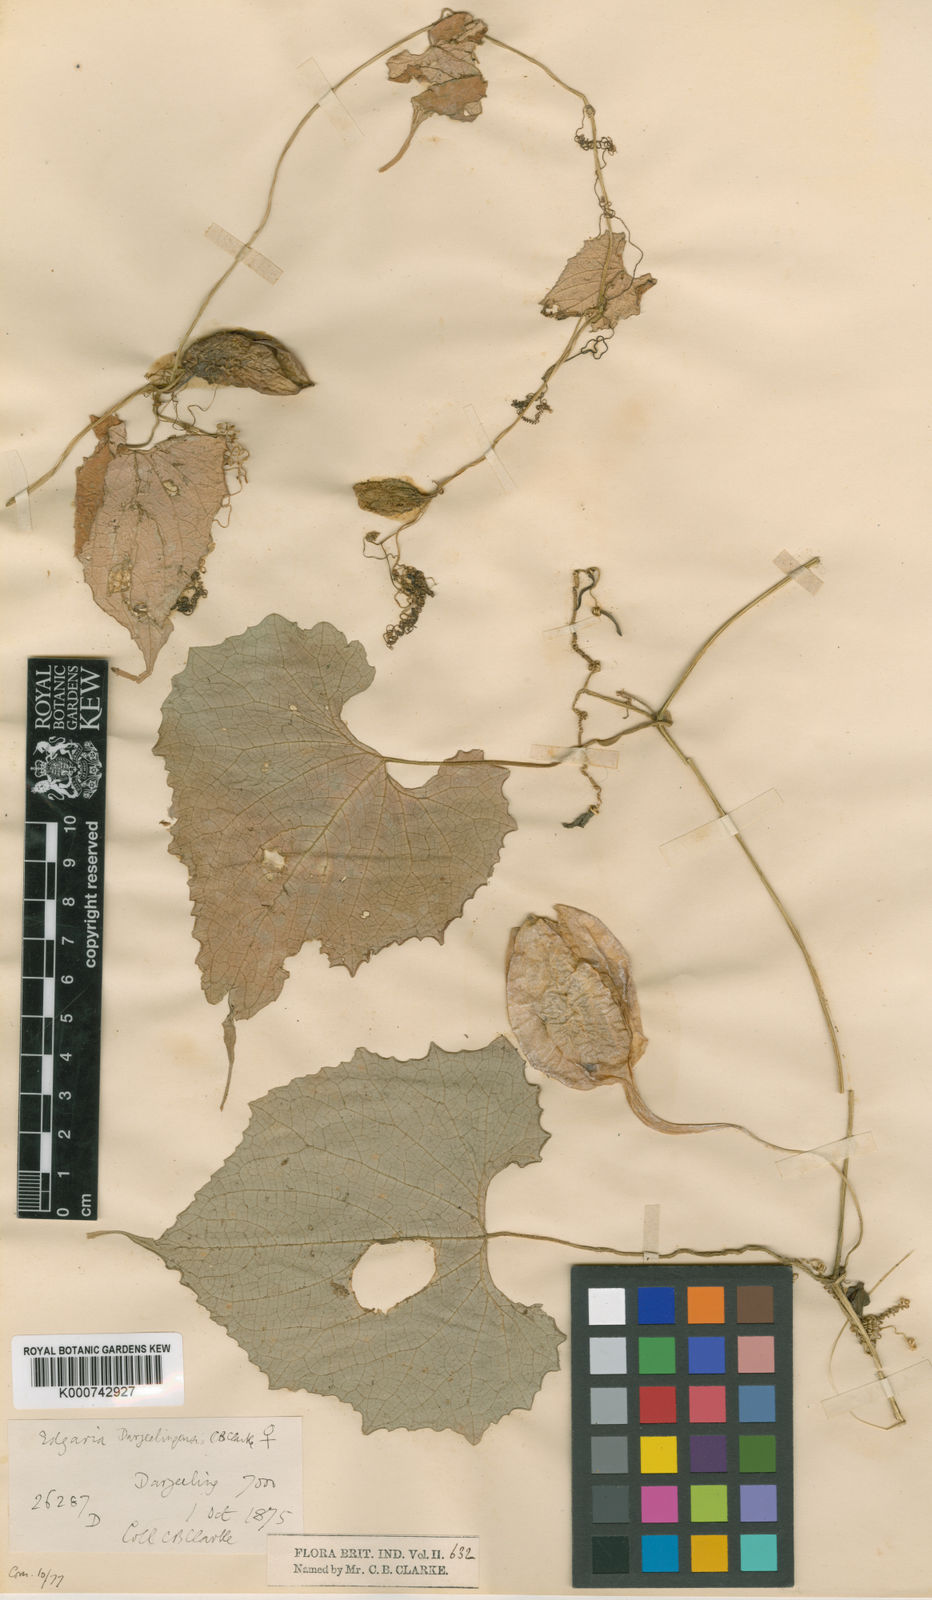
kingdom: Plantae
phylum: Tracheophyta
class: Magnoliopsida
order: Cucurbitales
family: Cucurbitaceae
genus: Herpetospermum
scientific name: Herpetospermum darjeelingense
